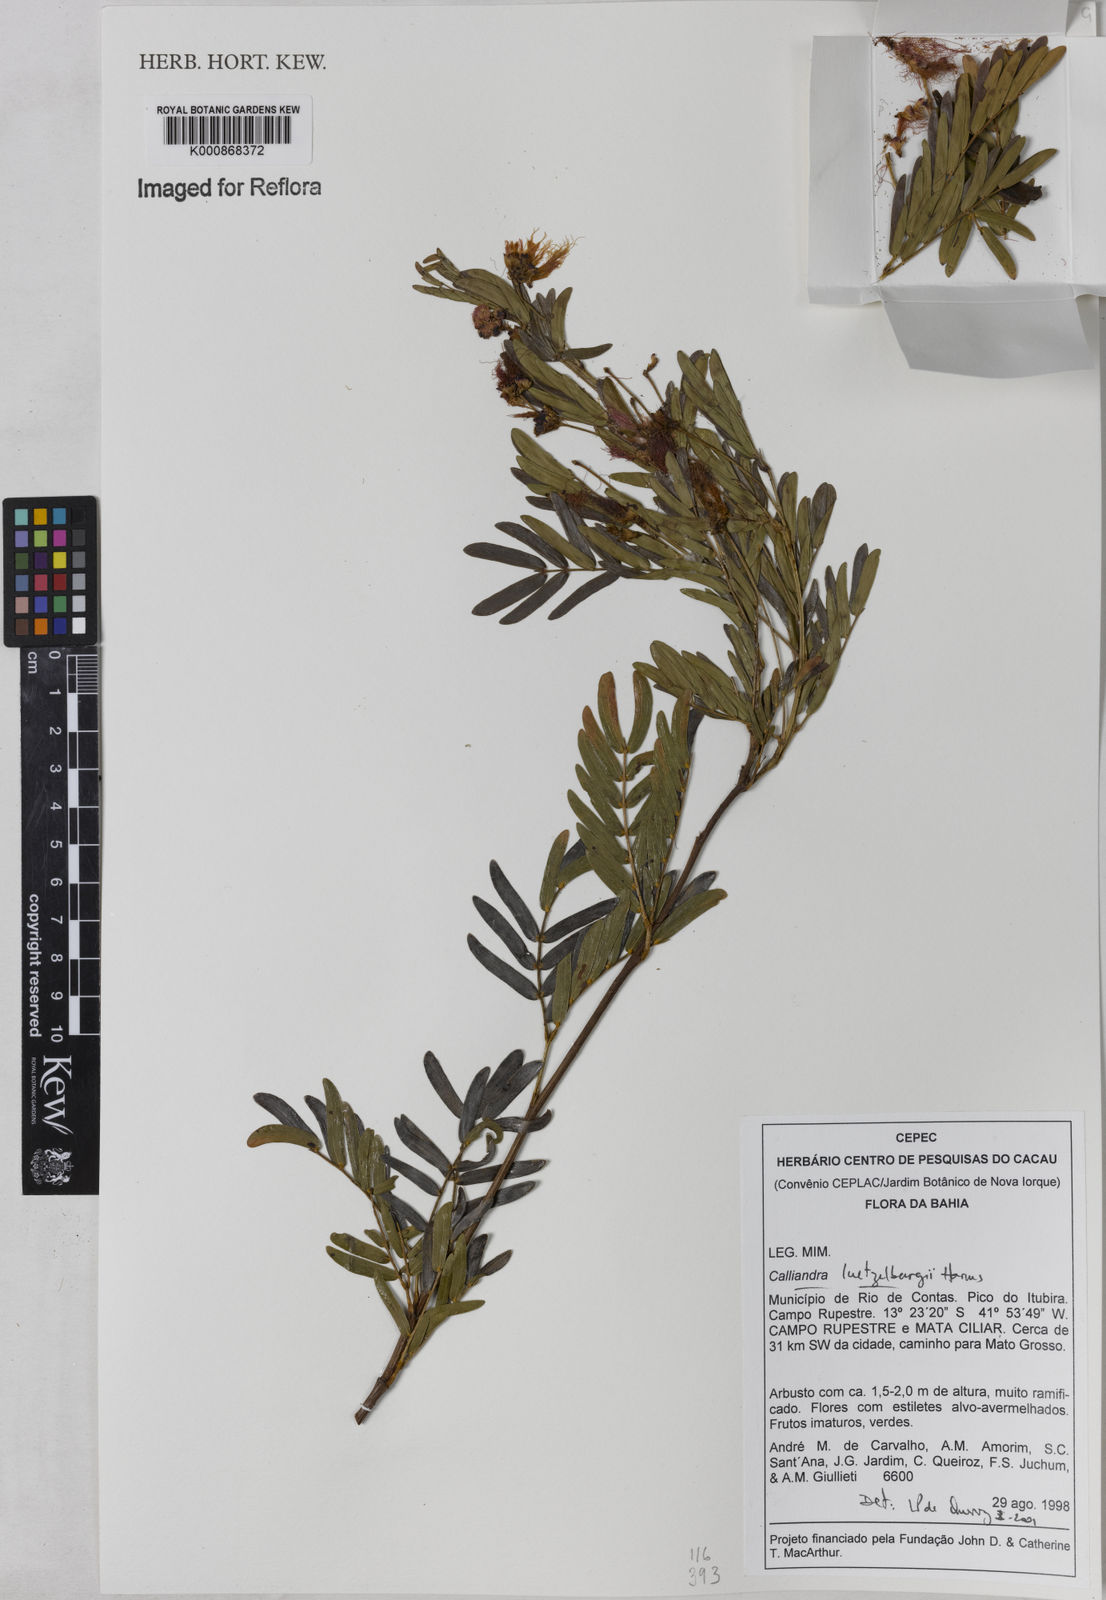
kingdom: Plantae
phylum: Tracheophyta
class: Magnoliopsida
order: Fabales
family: Fabaceae
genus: Calliandra
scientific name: Calliandra luetzelburgii
